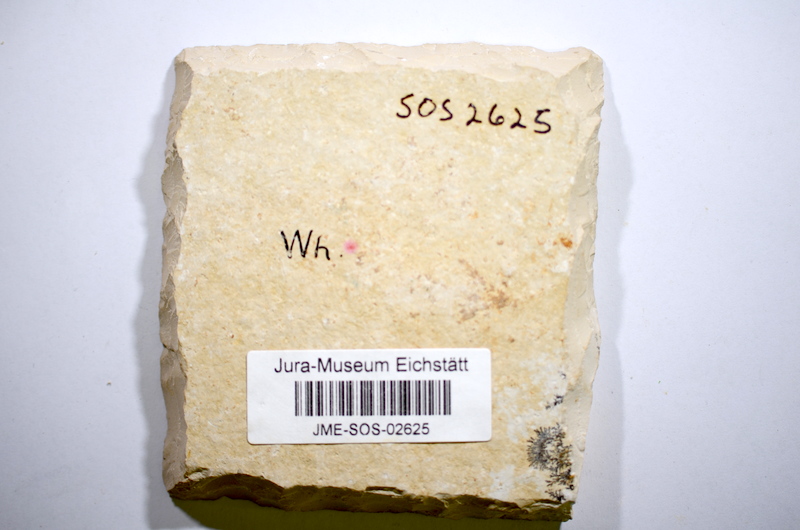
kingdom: Animalia
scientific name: Animalia
